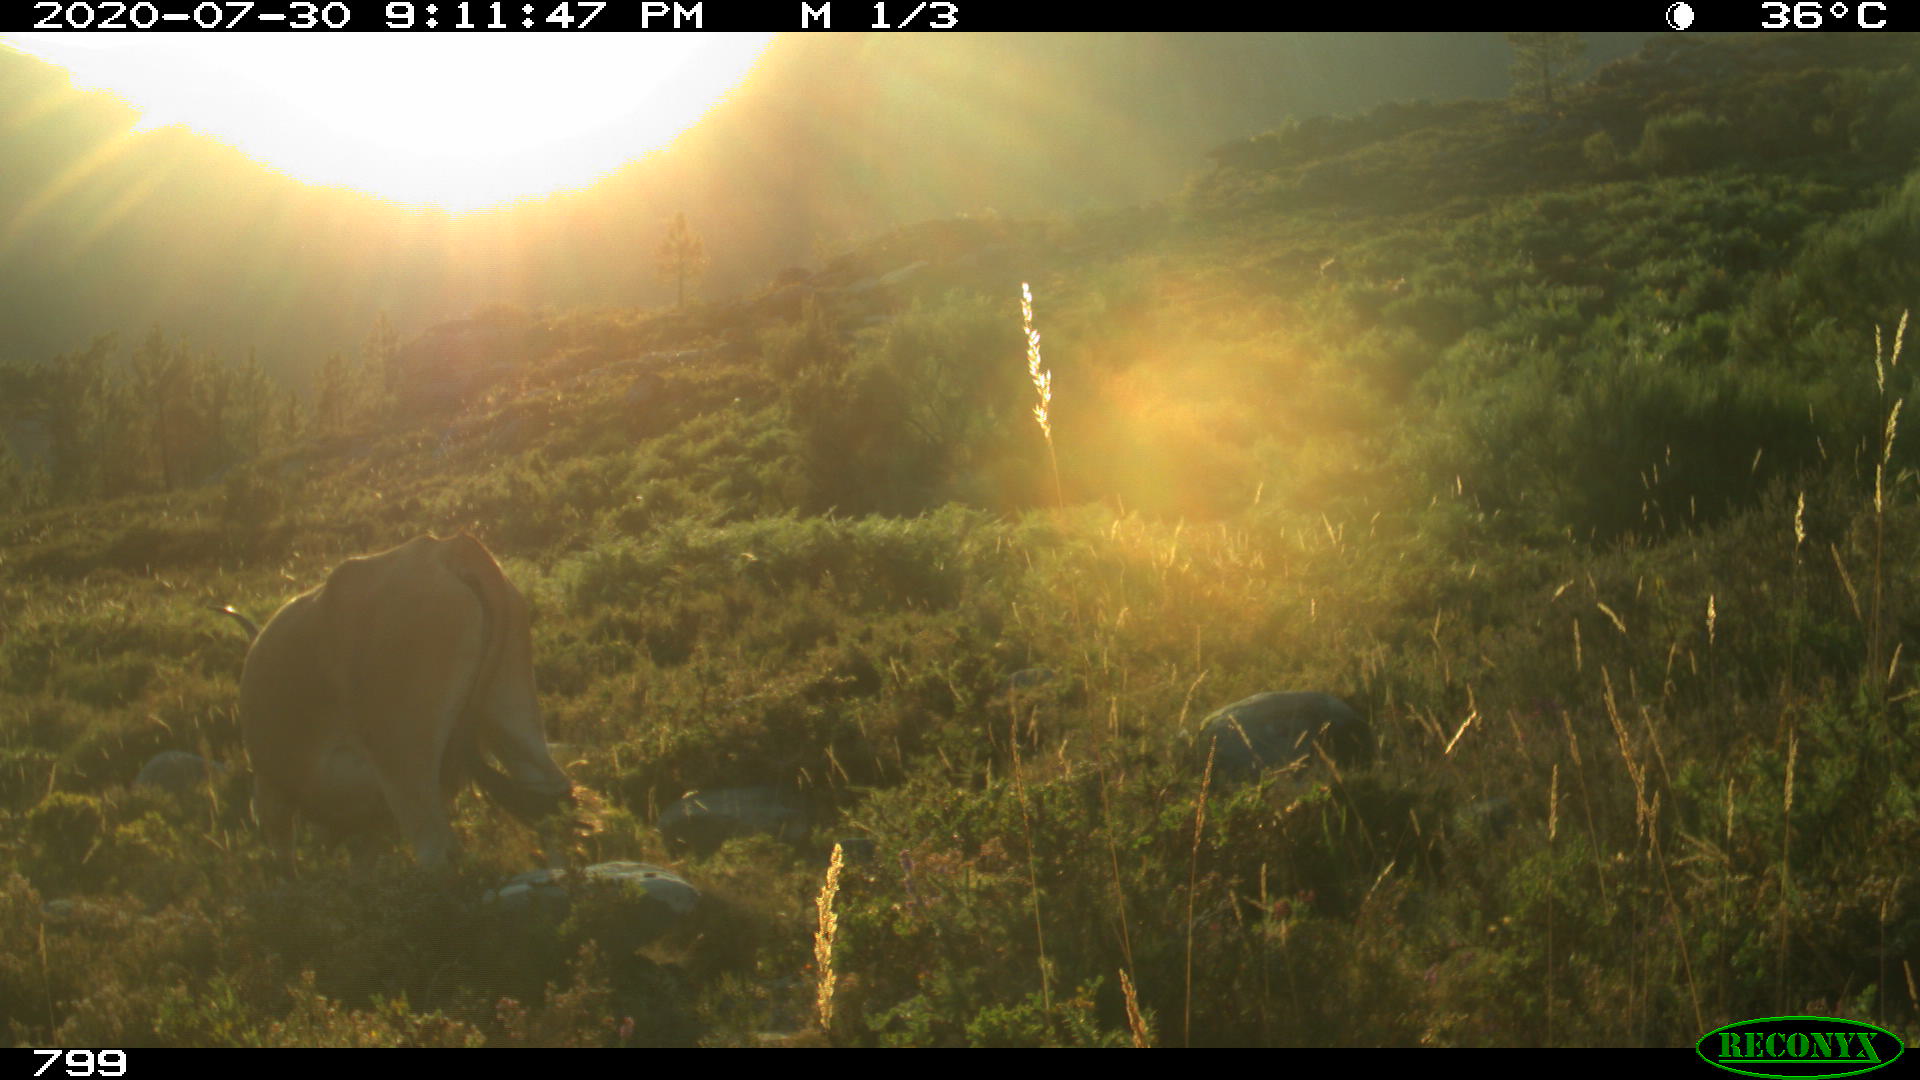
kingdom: Animalia
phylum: Chordata
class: Mammalia
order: Artiodactyla
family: Bovidae
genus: Bos
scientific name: Bos taurus
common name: Domesticated cattle
